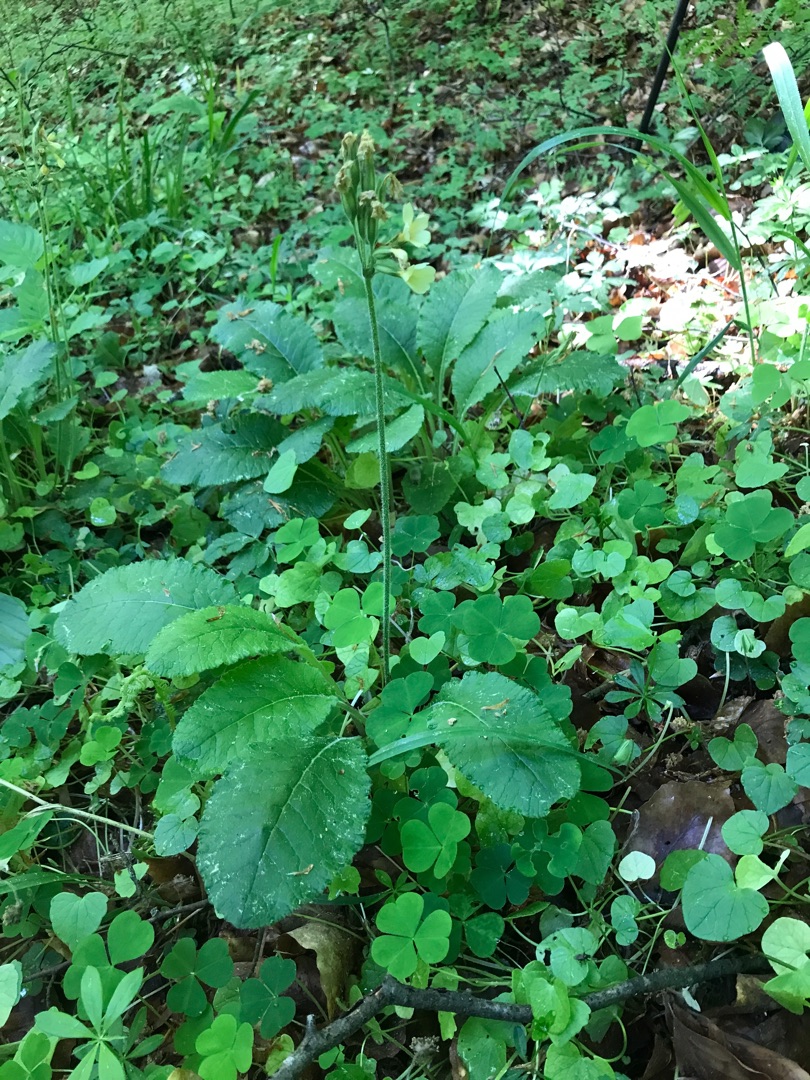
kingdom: Plantae
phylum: Tracheophyta
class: Magnoliopsida
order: Ericales
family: Primulaceae
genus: Primula
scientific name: Primula elatior
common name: Fladkravet kodriver
